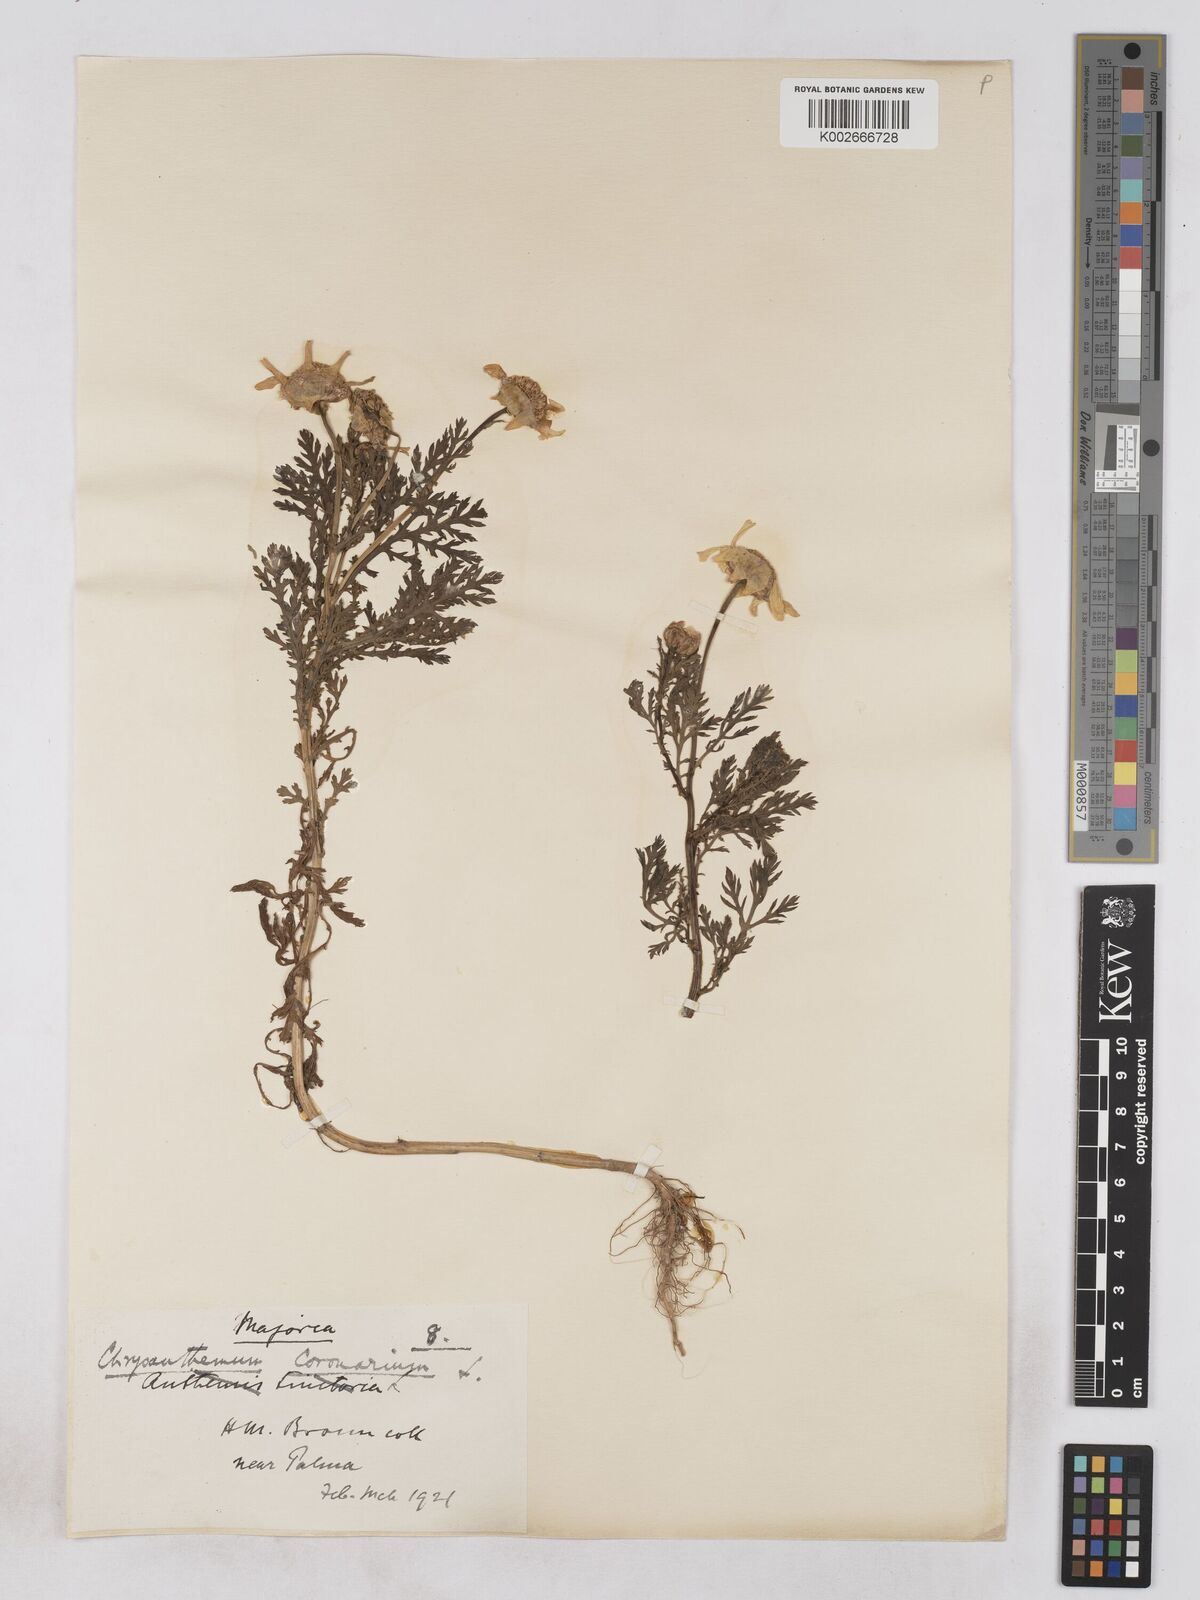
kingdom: Plantae
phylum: Tracheophyta
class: Magnoliopsida
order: Asterales
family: Asteraceae
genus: Glebionis
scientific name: Glebionis
